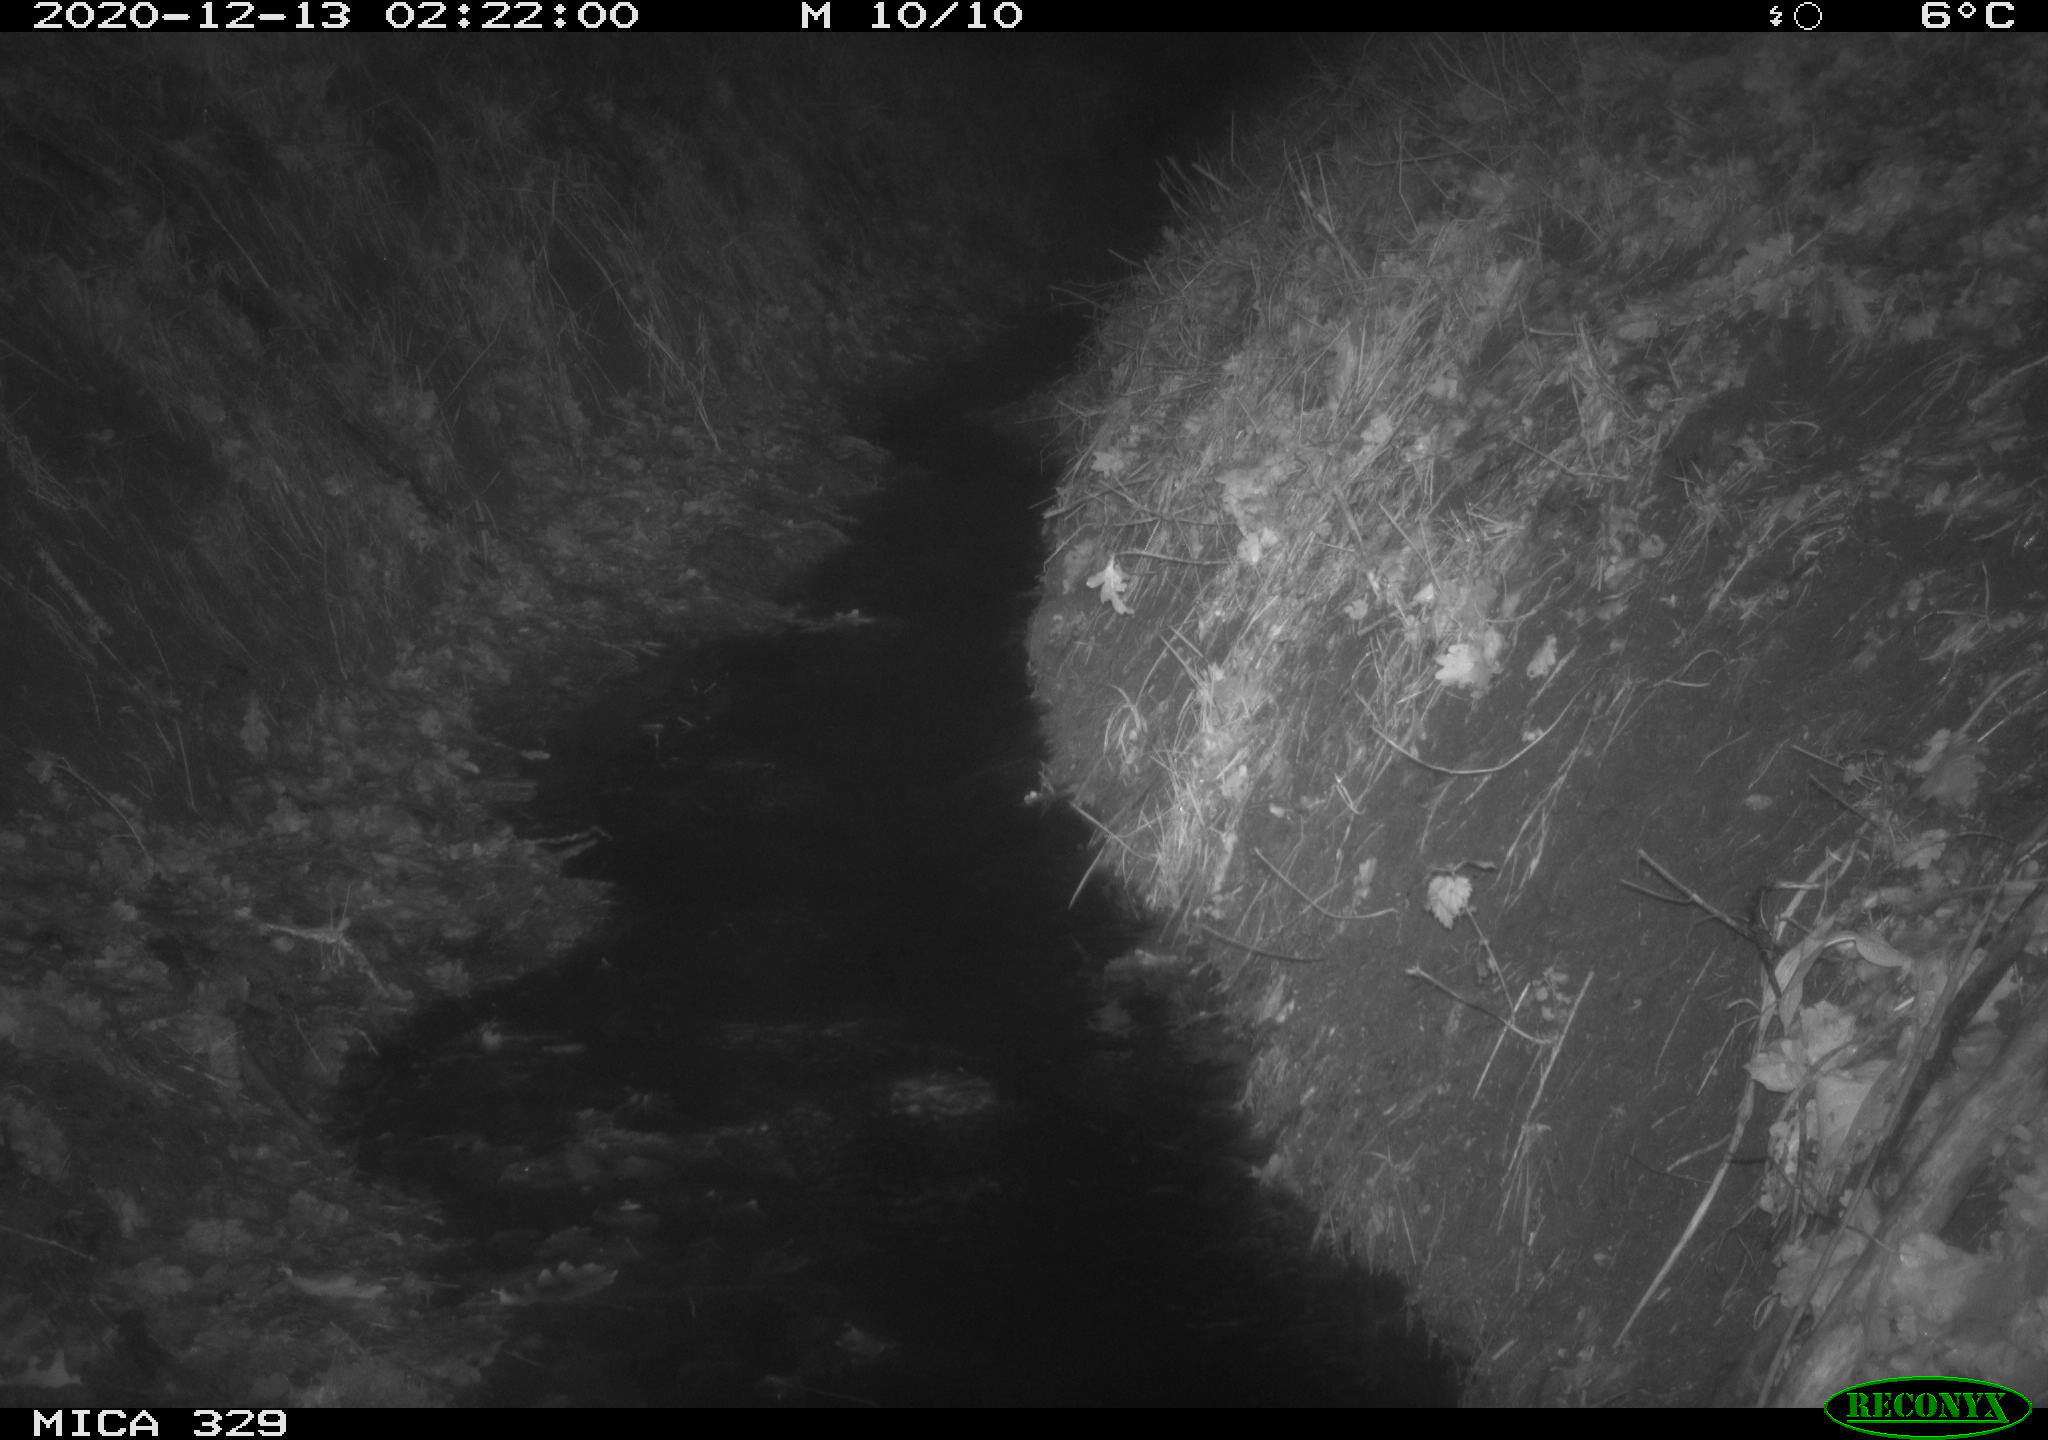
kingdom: Animalia
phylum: Chordata
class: Mammalia
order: Rodentia
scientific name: Rodentia
